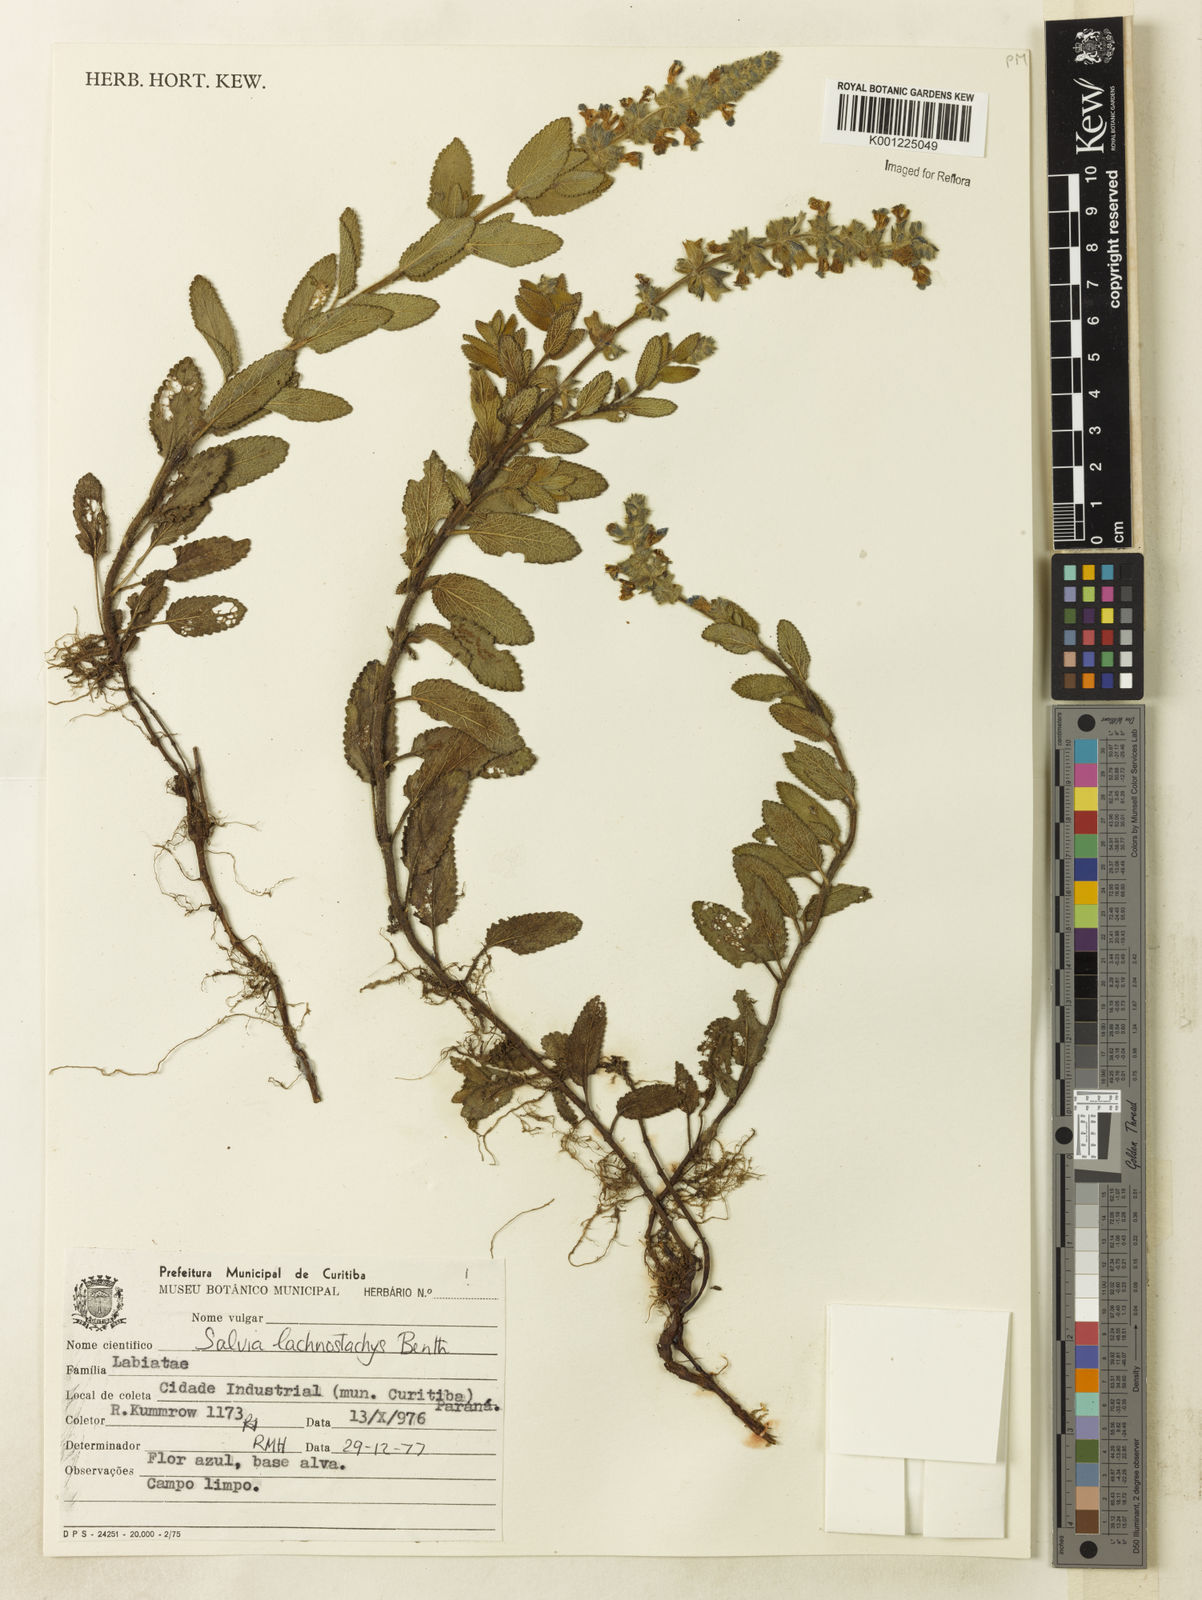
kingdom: Plantae
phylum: Tracheophyta
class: Magnoliopsida
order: Lamiales
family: Lamiaceae
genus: Salvia
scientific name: Salvia lachnostachys
